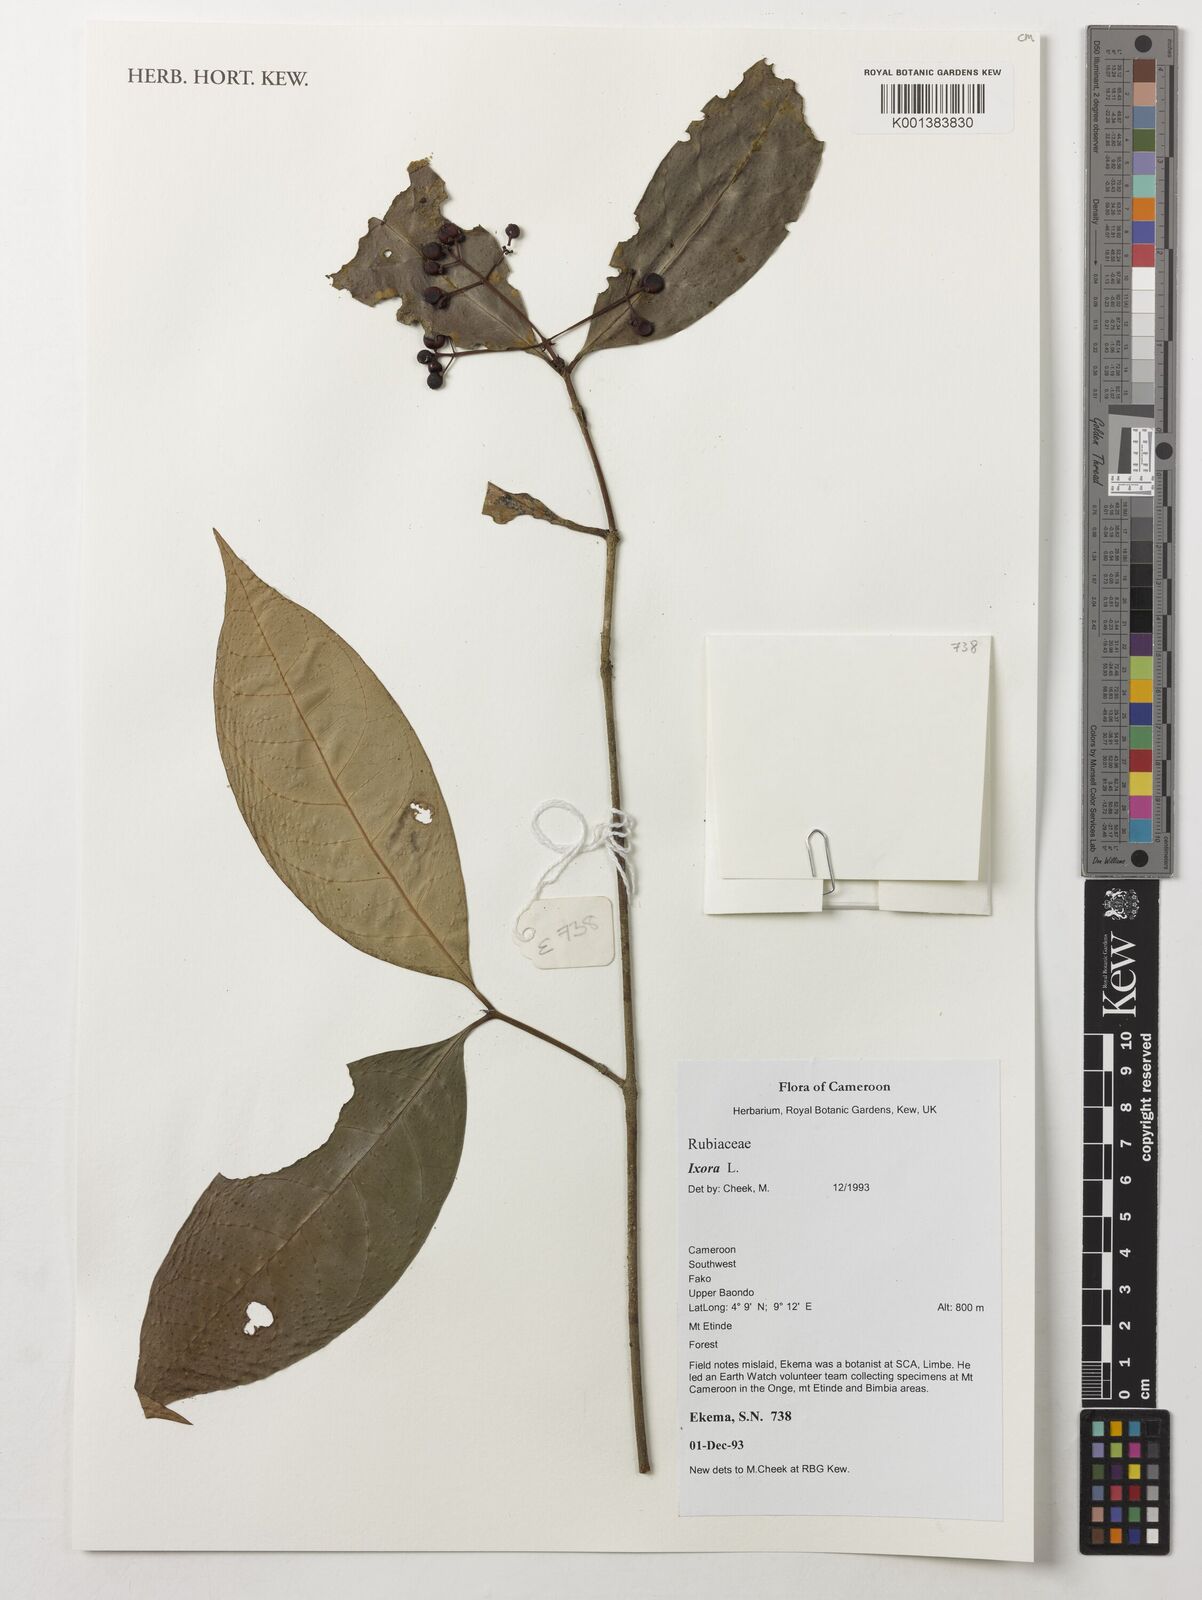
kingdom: Plantae
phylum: Tracheophyta
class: Magnoliopsida
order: Gentianales
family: Rubiaceae
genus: Ixora
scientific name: Ixora
